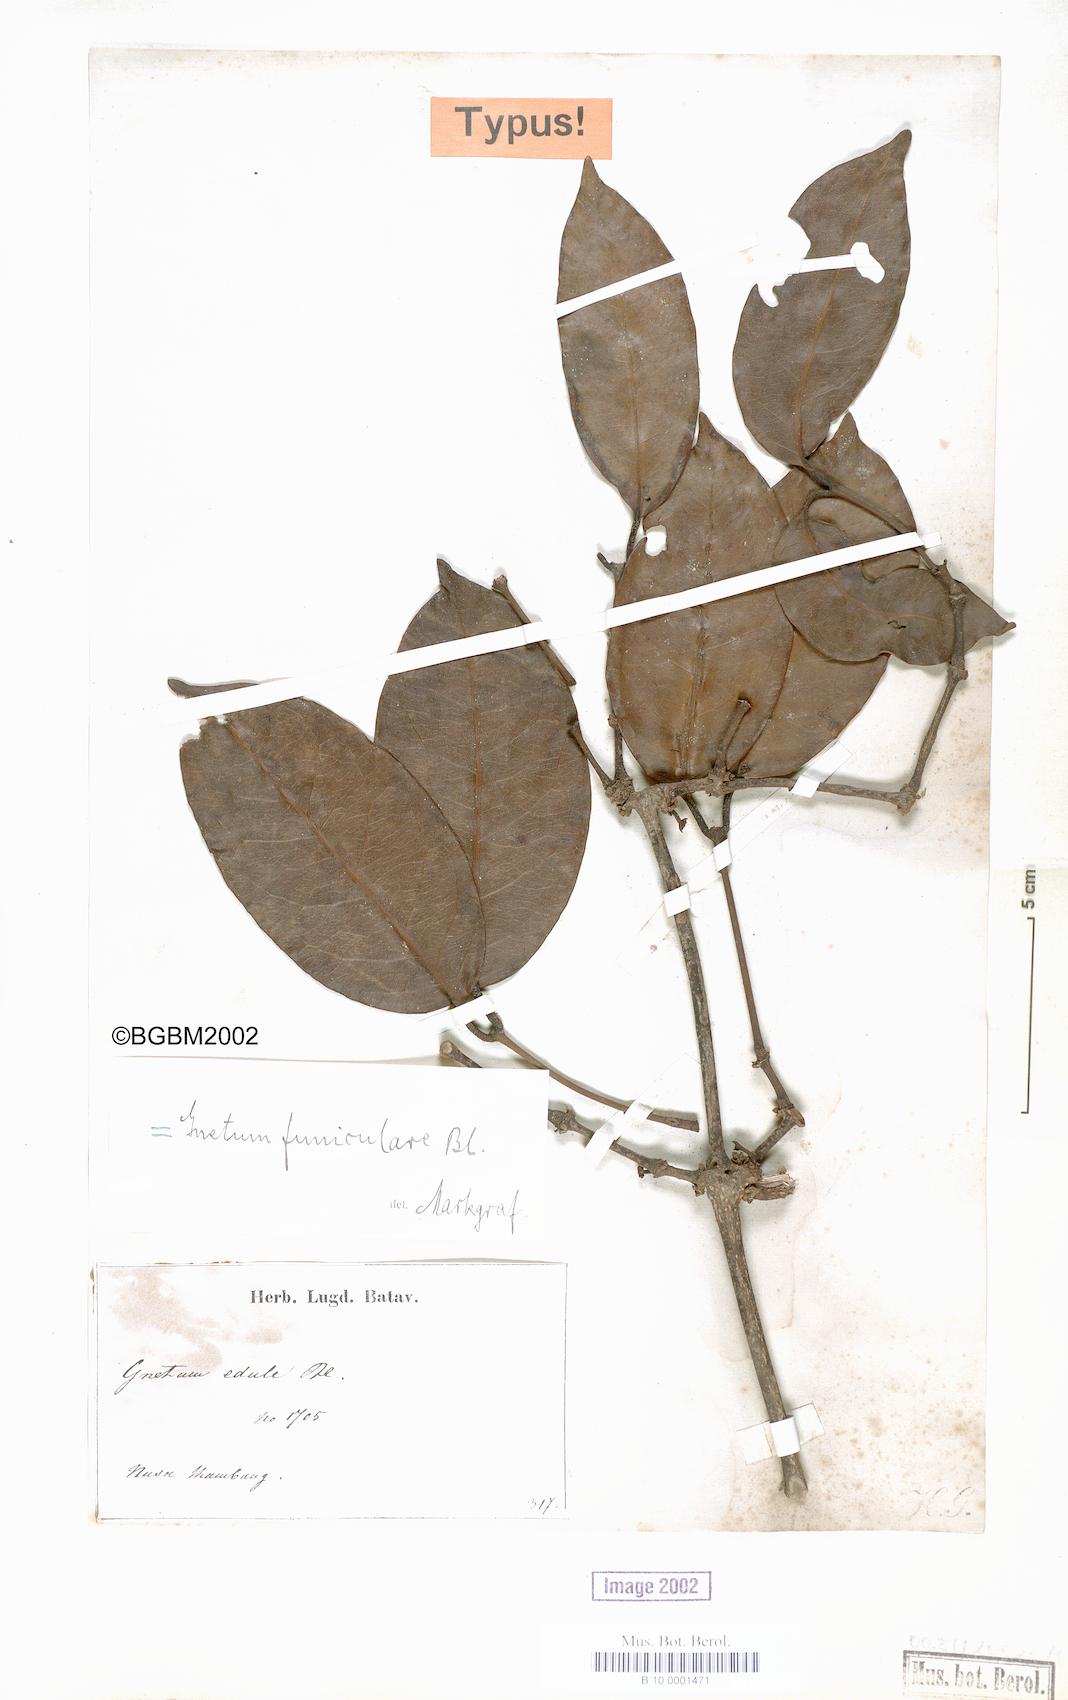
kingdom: Plantae
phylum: Tracheophyta
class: Gnetopsida
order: Gnetales
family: Gnetaceae
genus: Gnetum
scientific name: Gnetum funiculare
